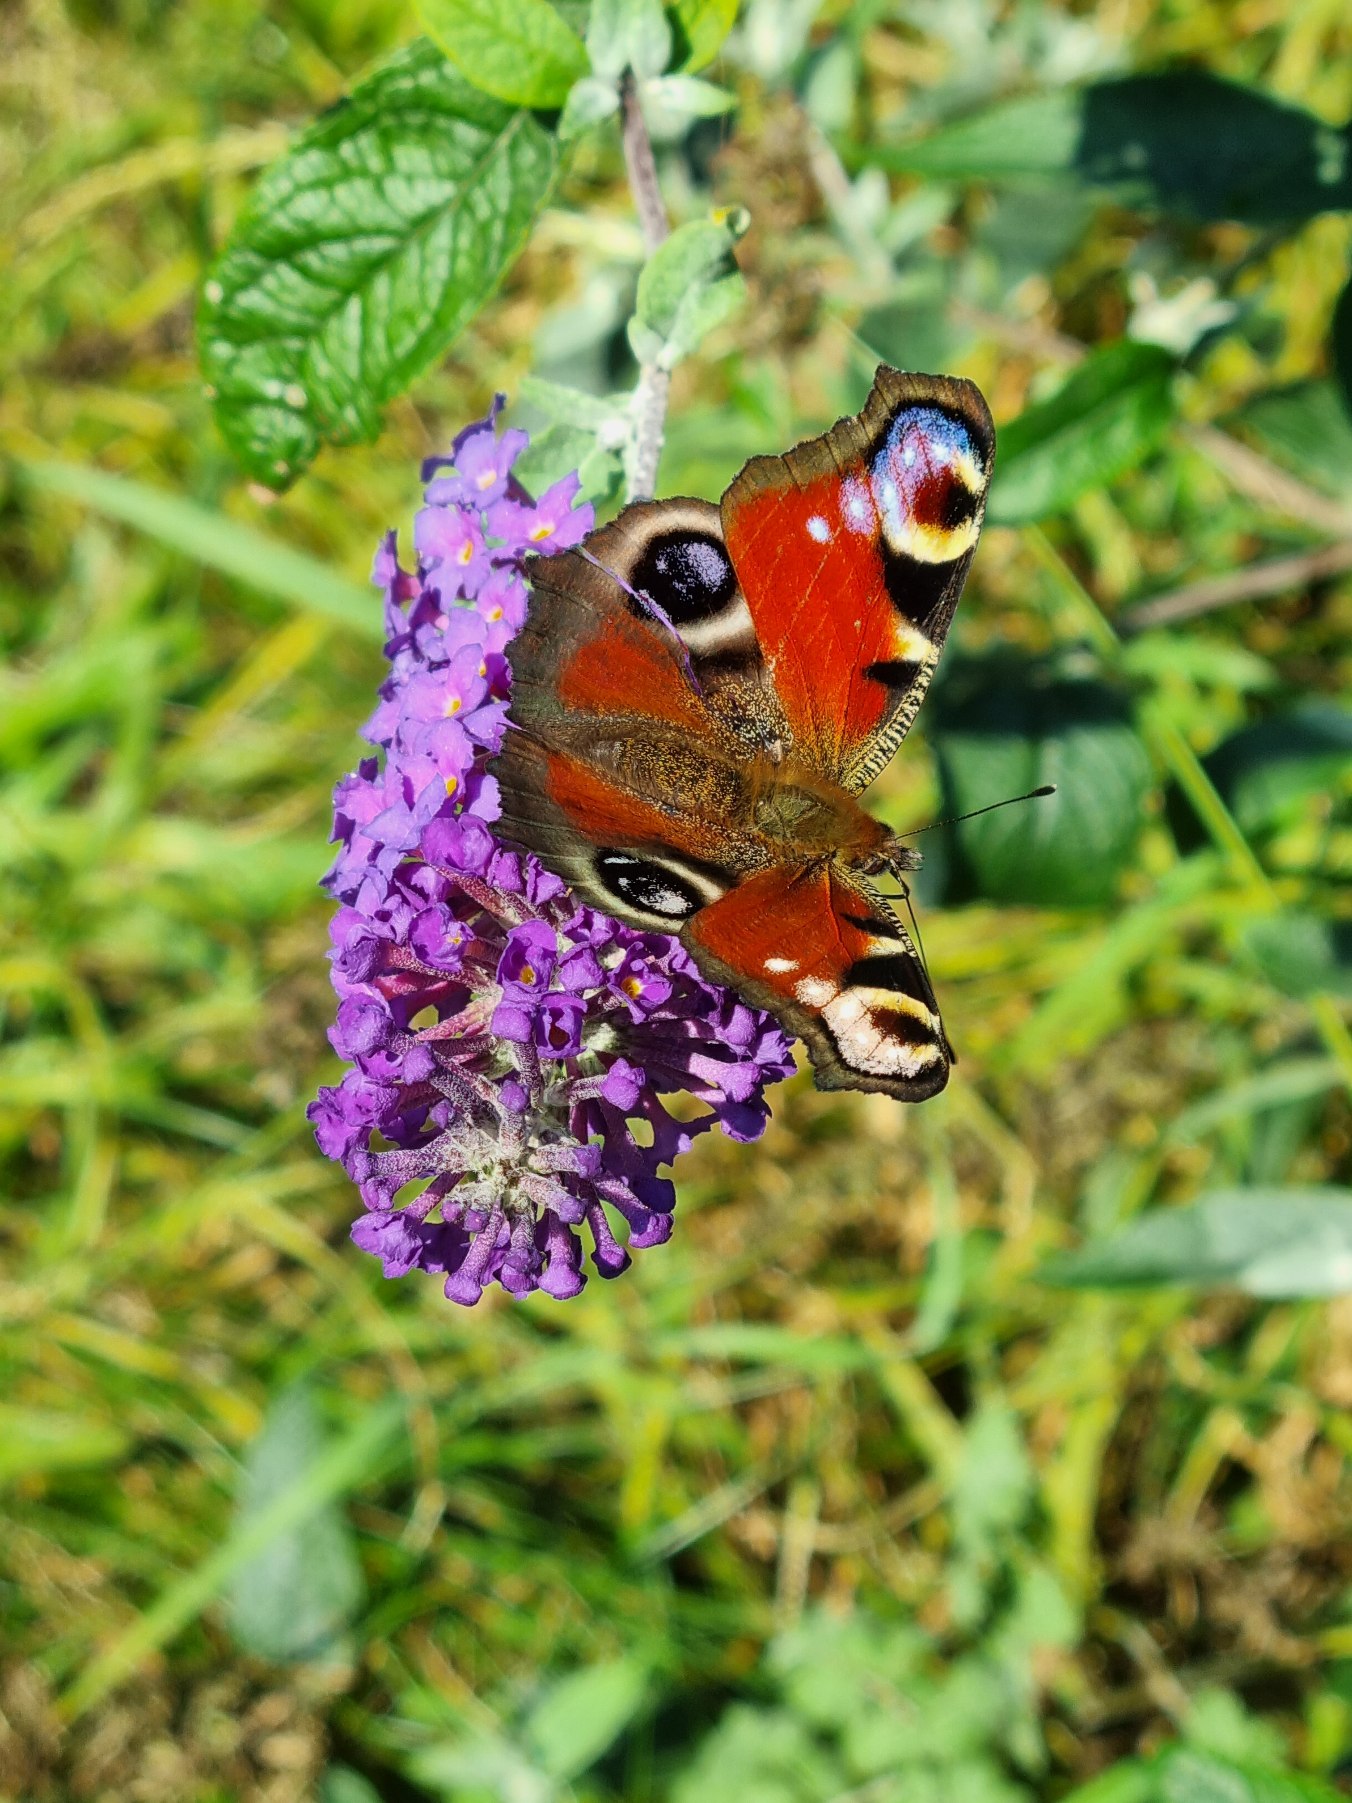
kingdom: Animalia
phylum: Arthropoda
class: Insecta
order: Lepidoptera
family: Nymphalidae
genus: Aglais
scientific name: Aglais io
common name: Dagpåfugleøje
